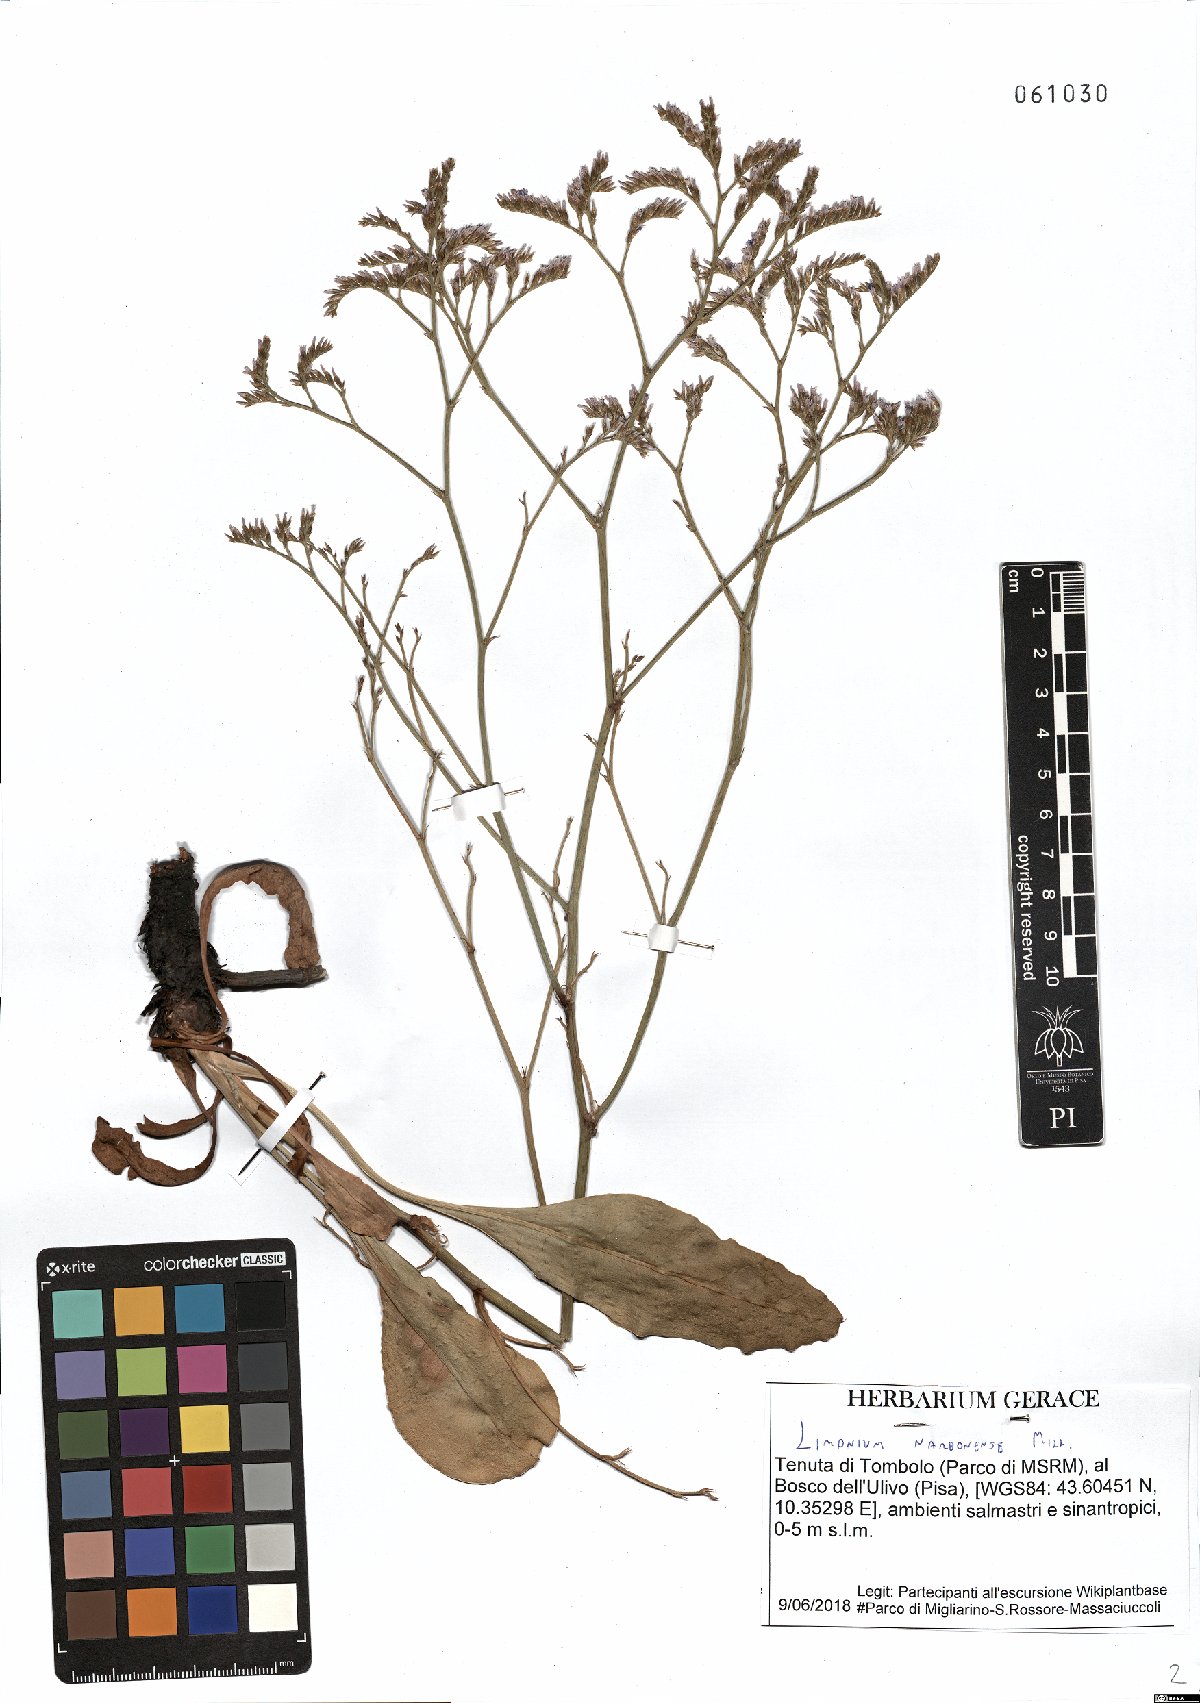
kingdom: Plantae
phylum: Tracheophyta
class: Magnoliopsida
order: Caryophyllales
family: Plumbaginaceae
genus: Limonium
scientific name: Limonium narbonense
